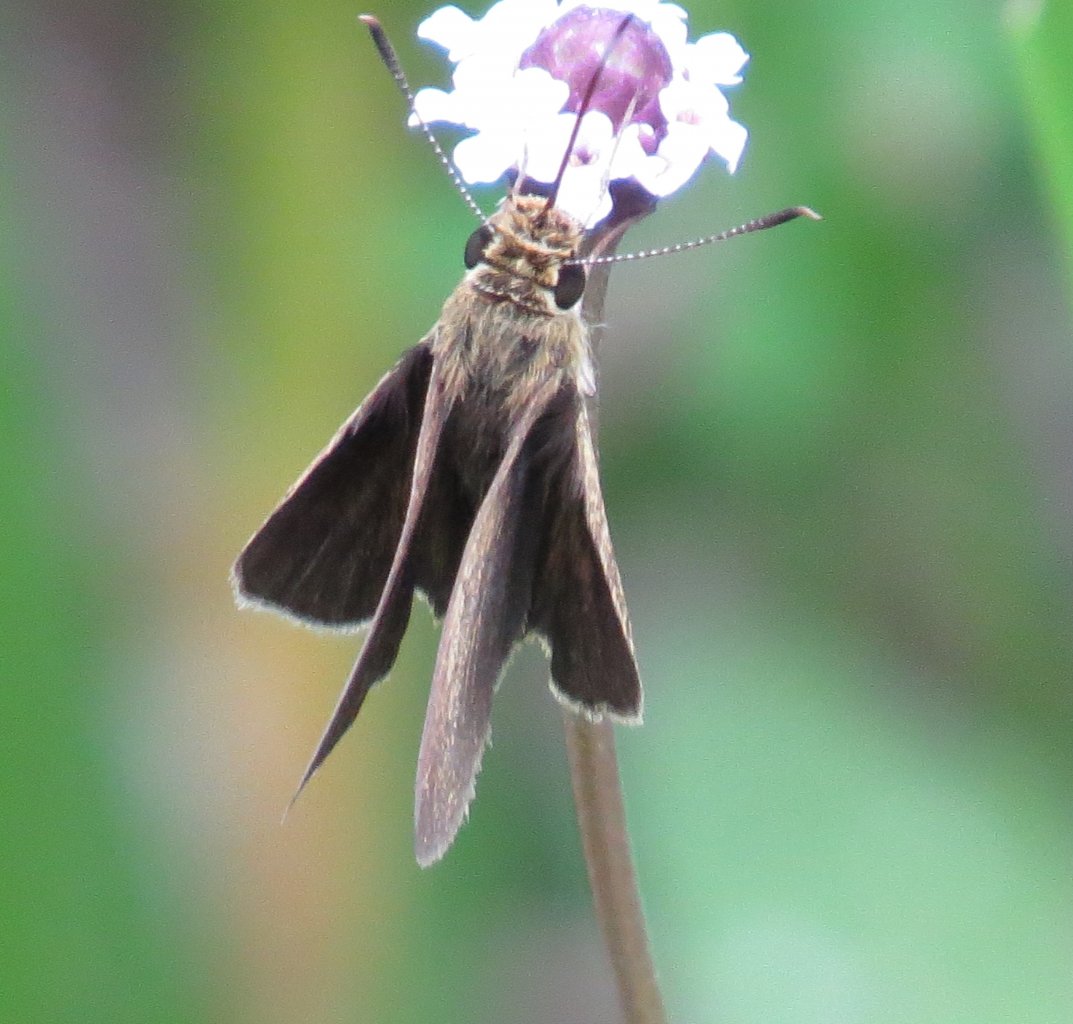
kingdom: Animalia
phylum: Arthropoda
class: Insecta
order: Lepidoptera
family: Hesperiidae
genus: Nastra
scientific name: Nastra lherminier
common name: Swarthy Skipper
